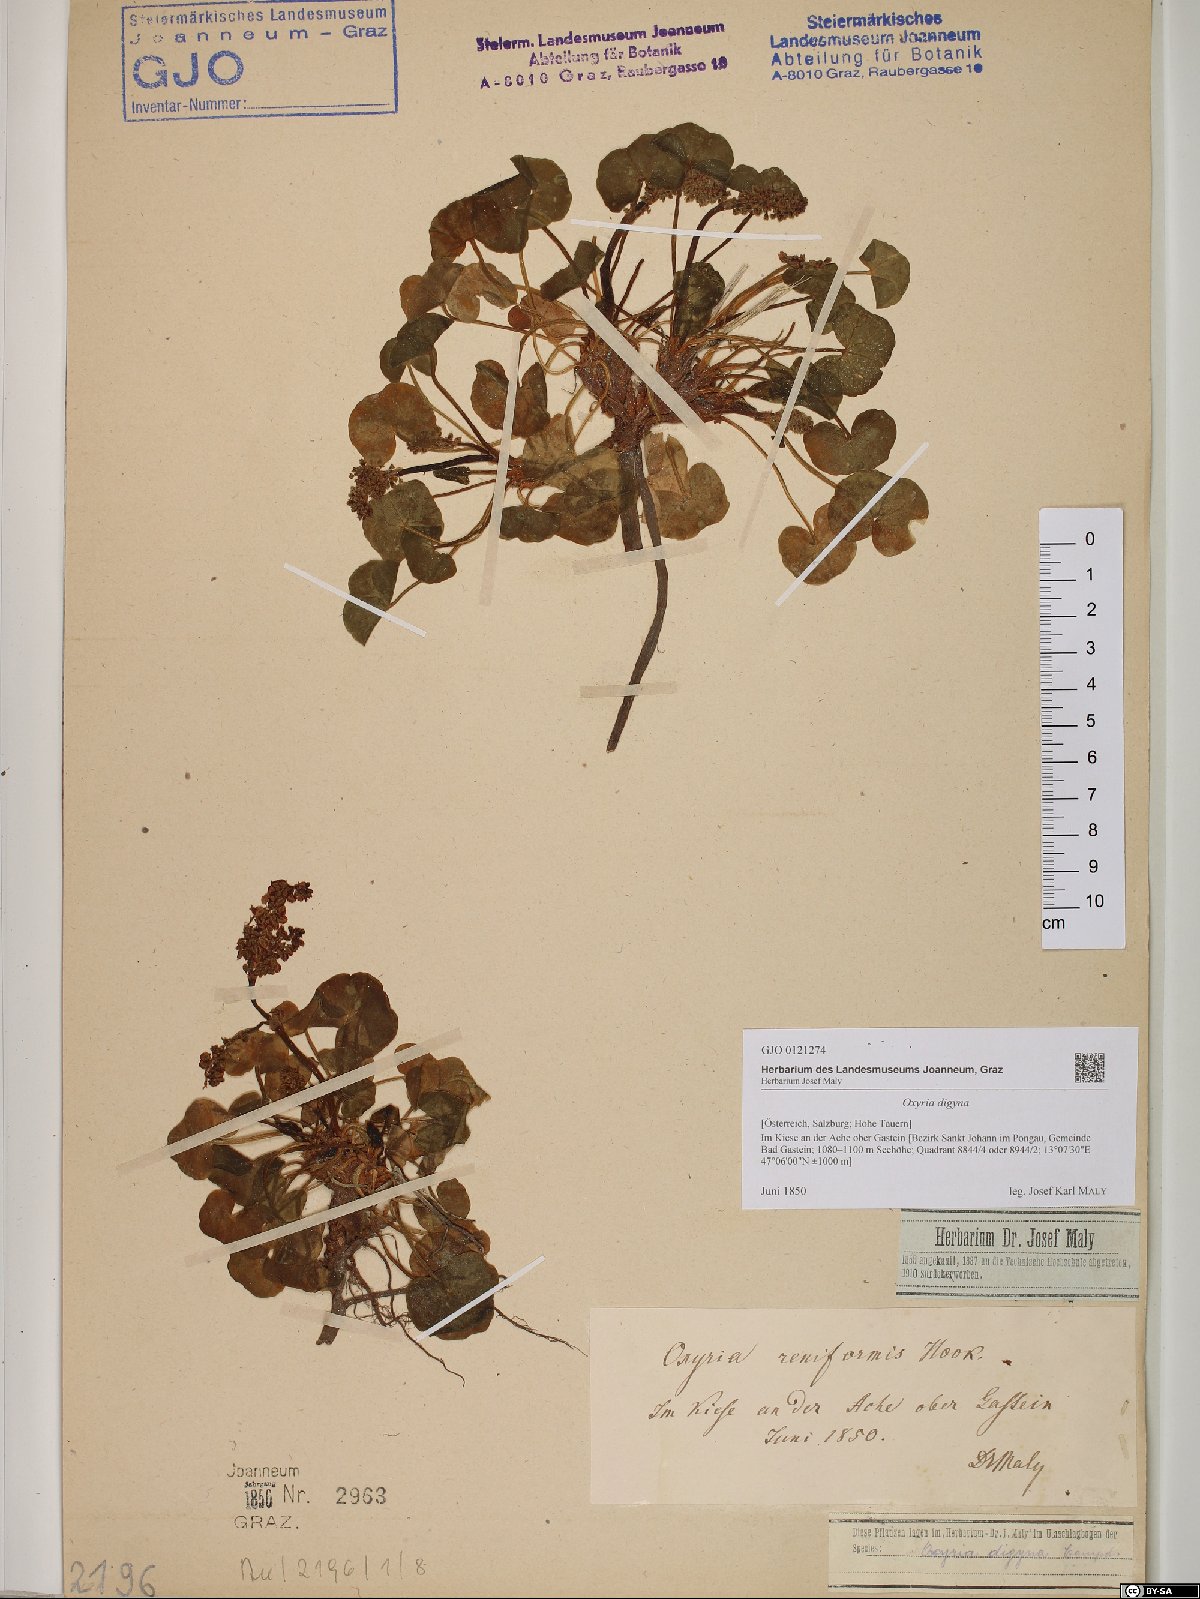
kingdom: Plantae
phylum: Tracheophyta
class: Magnoliopsida
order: Caryophyllales
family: Polygonaceae
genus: Oxyria
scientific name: Oxyria digyna
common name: Alpine mountain-sorrel
